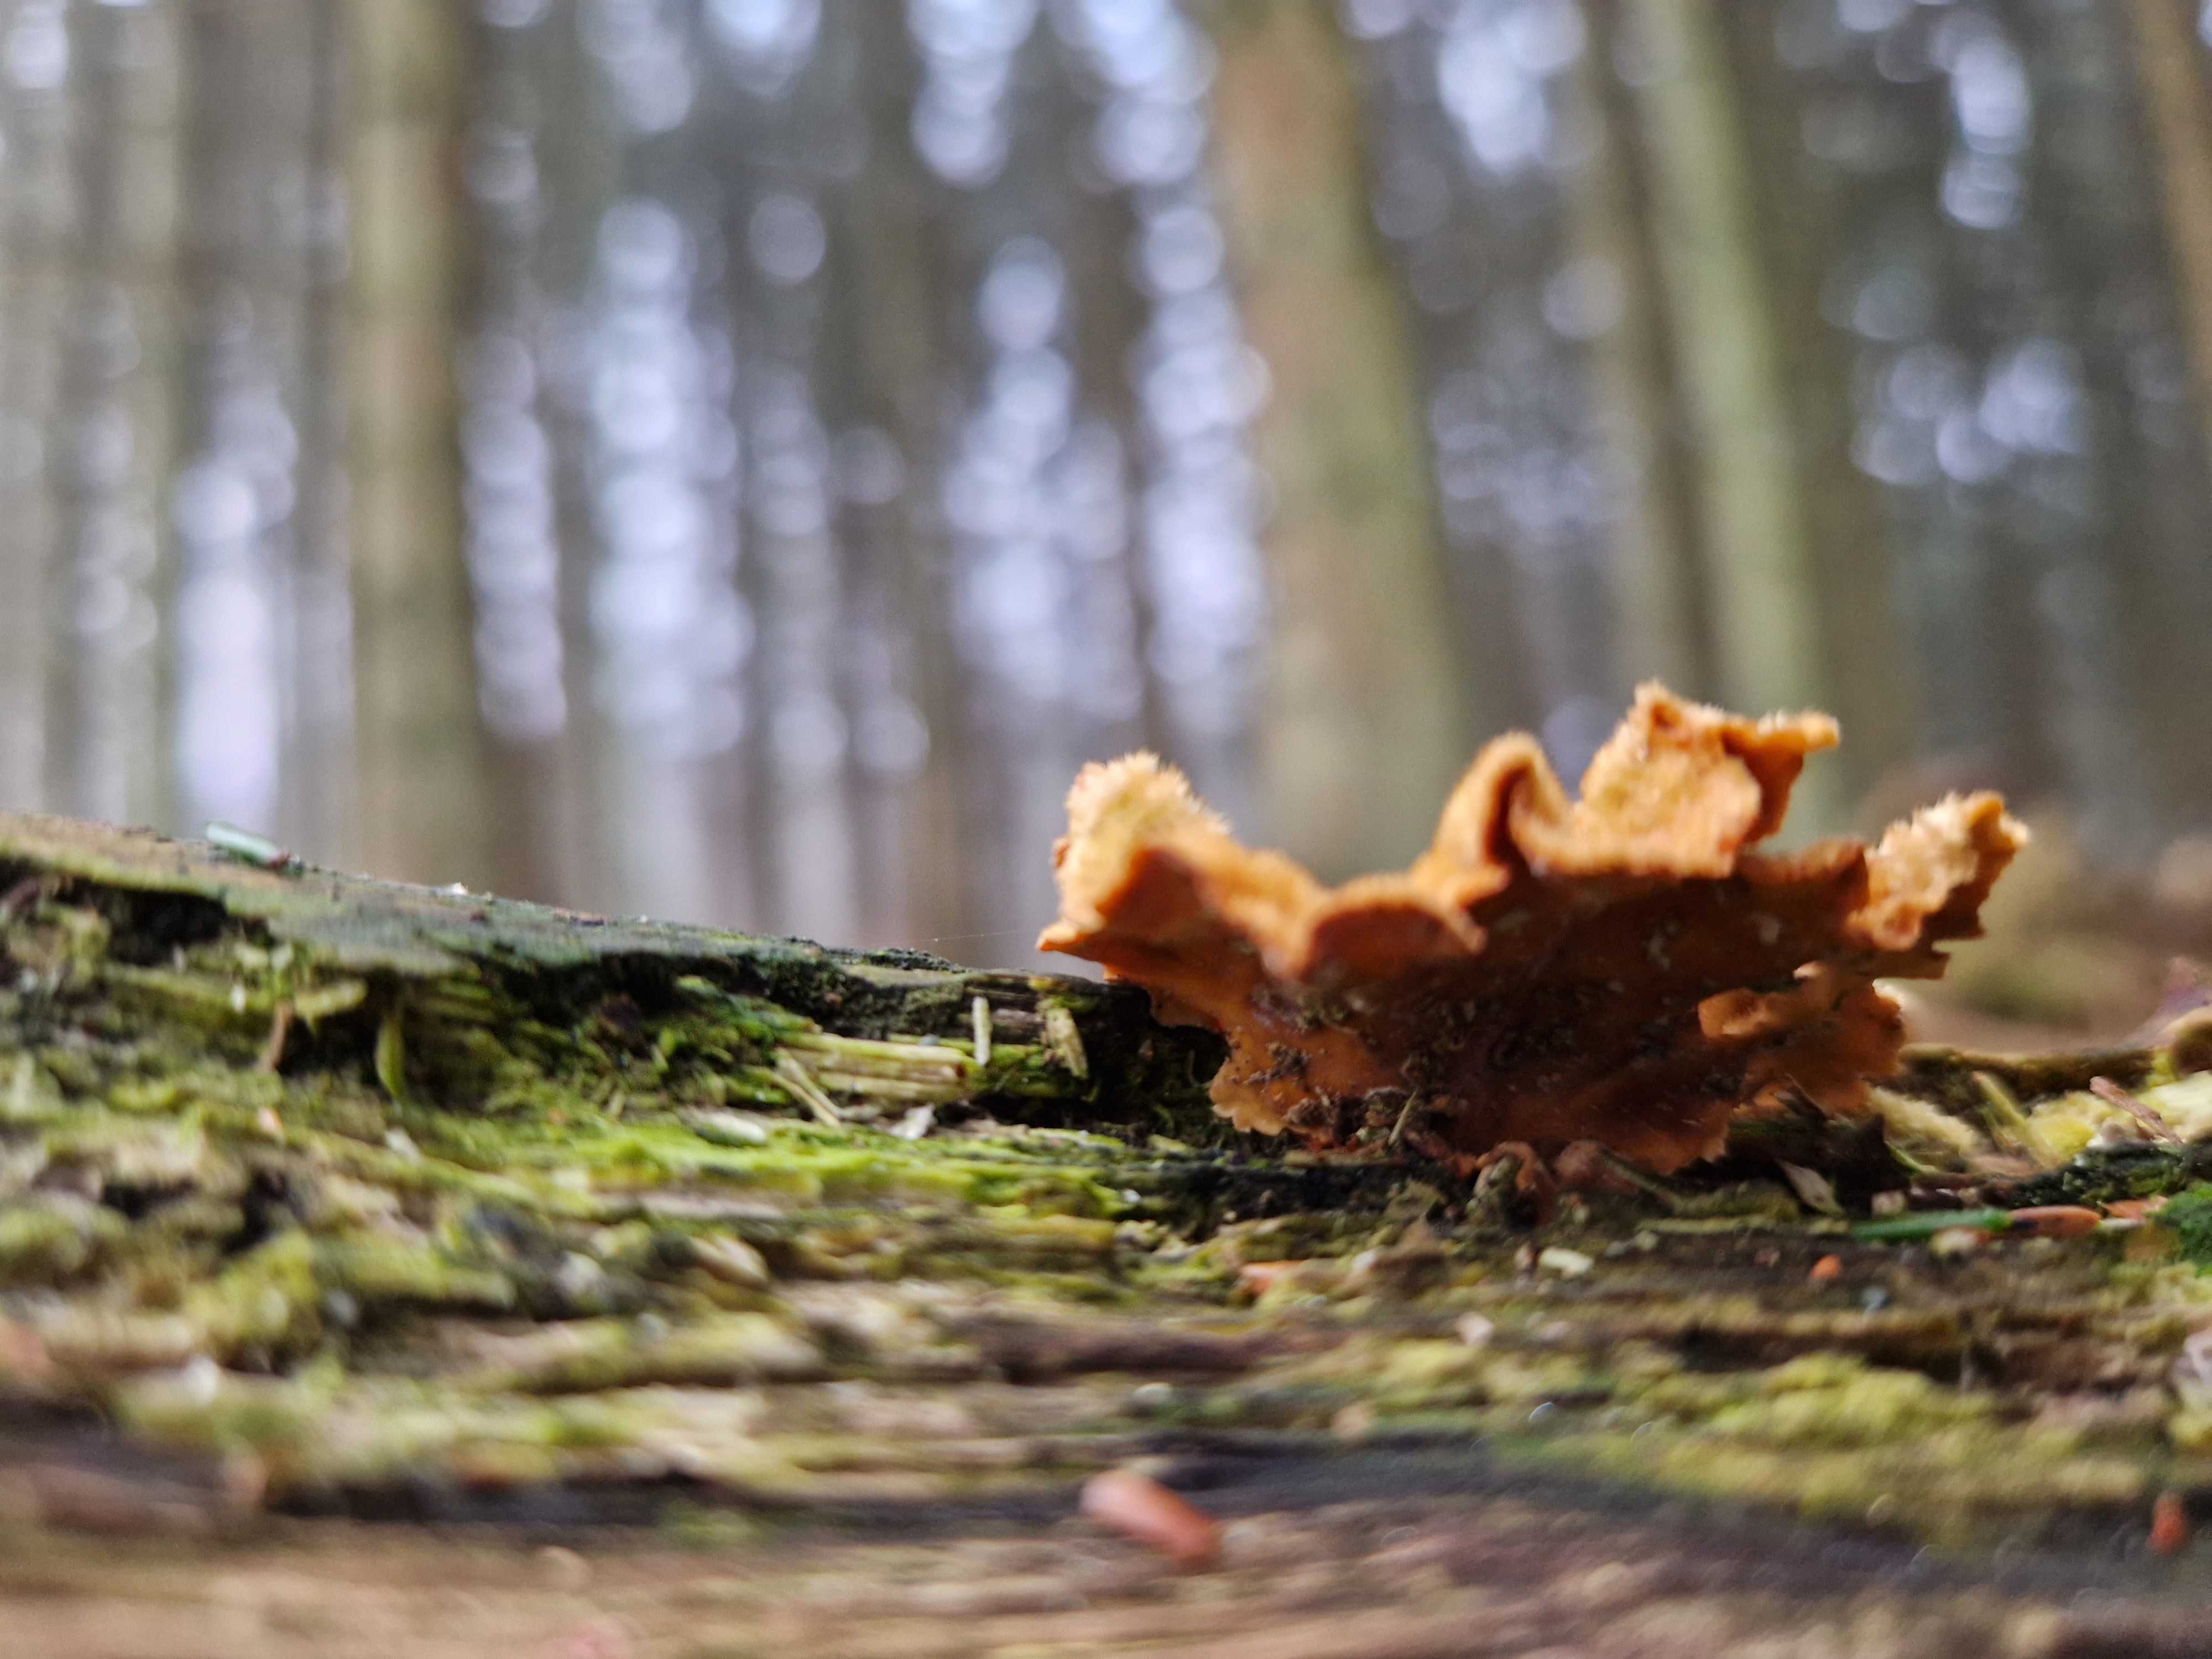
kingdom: Fungi
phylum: Basidiomycota
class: Agaricomycetes
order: Russulales
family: Stereaceae
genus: Stereum
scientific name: Stereum hirsutum
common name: håret lædersvamp
